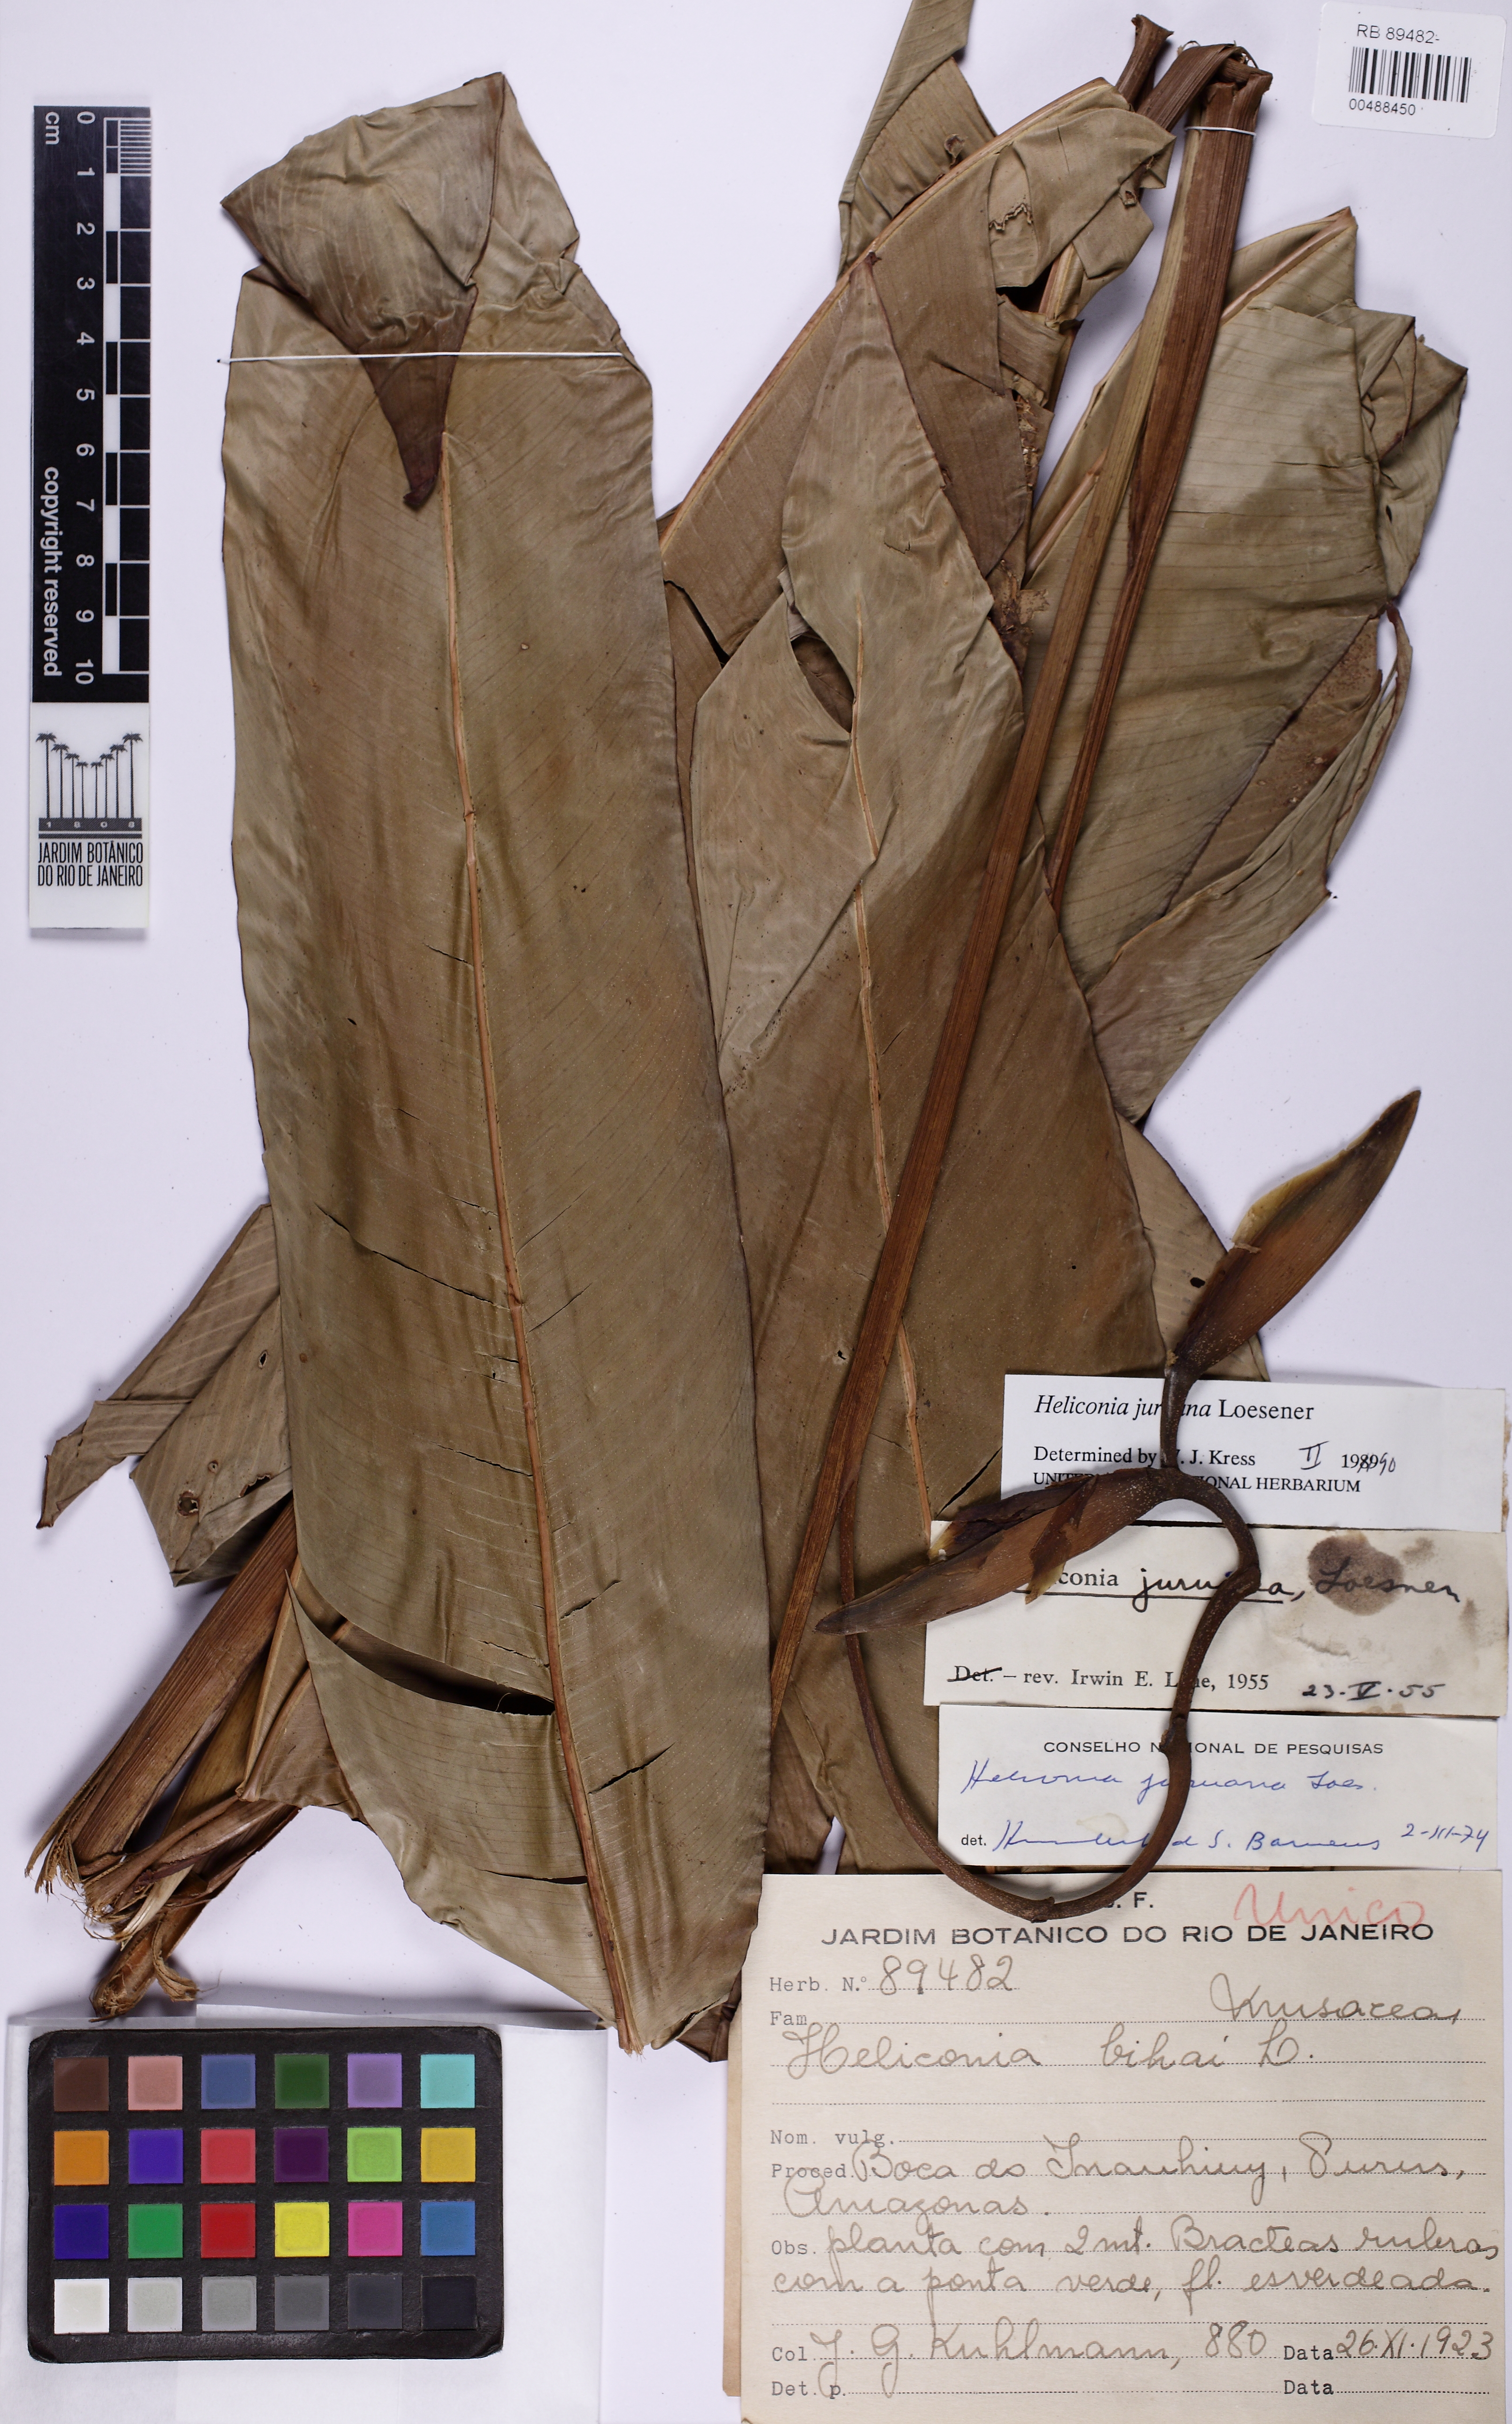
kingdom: Plantae
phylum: Tracheophyta
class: Liliopsida
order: Zingiberales
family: Heliconiaceae
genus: Heliconia
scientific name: Heliconia juruana
